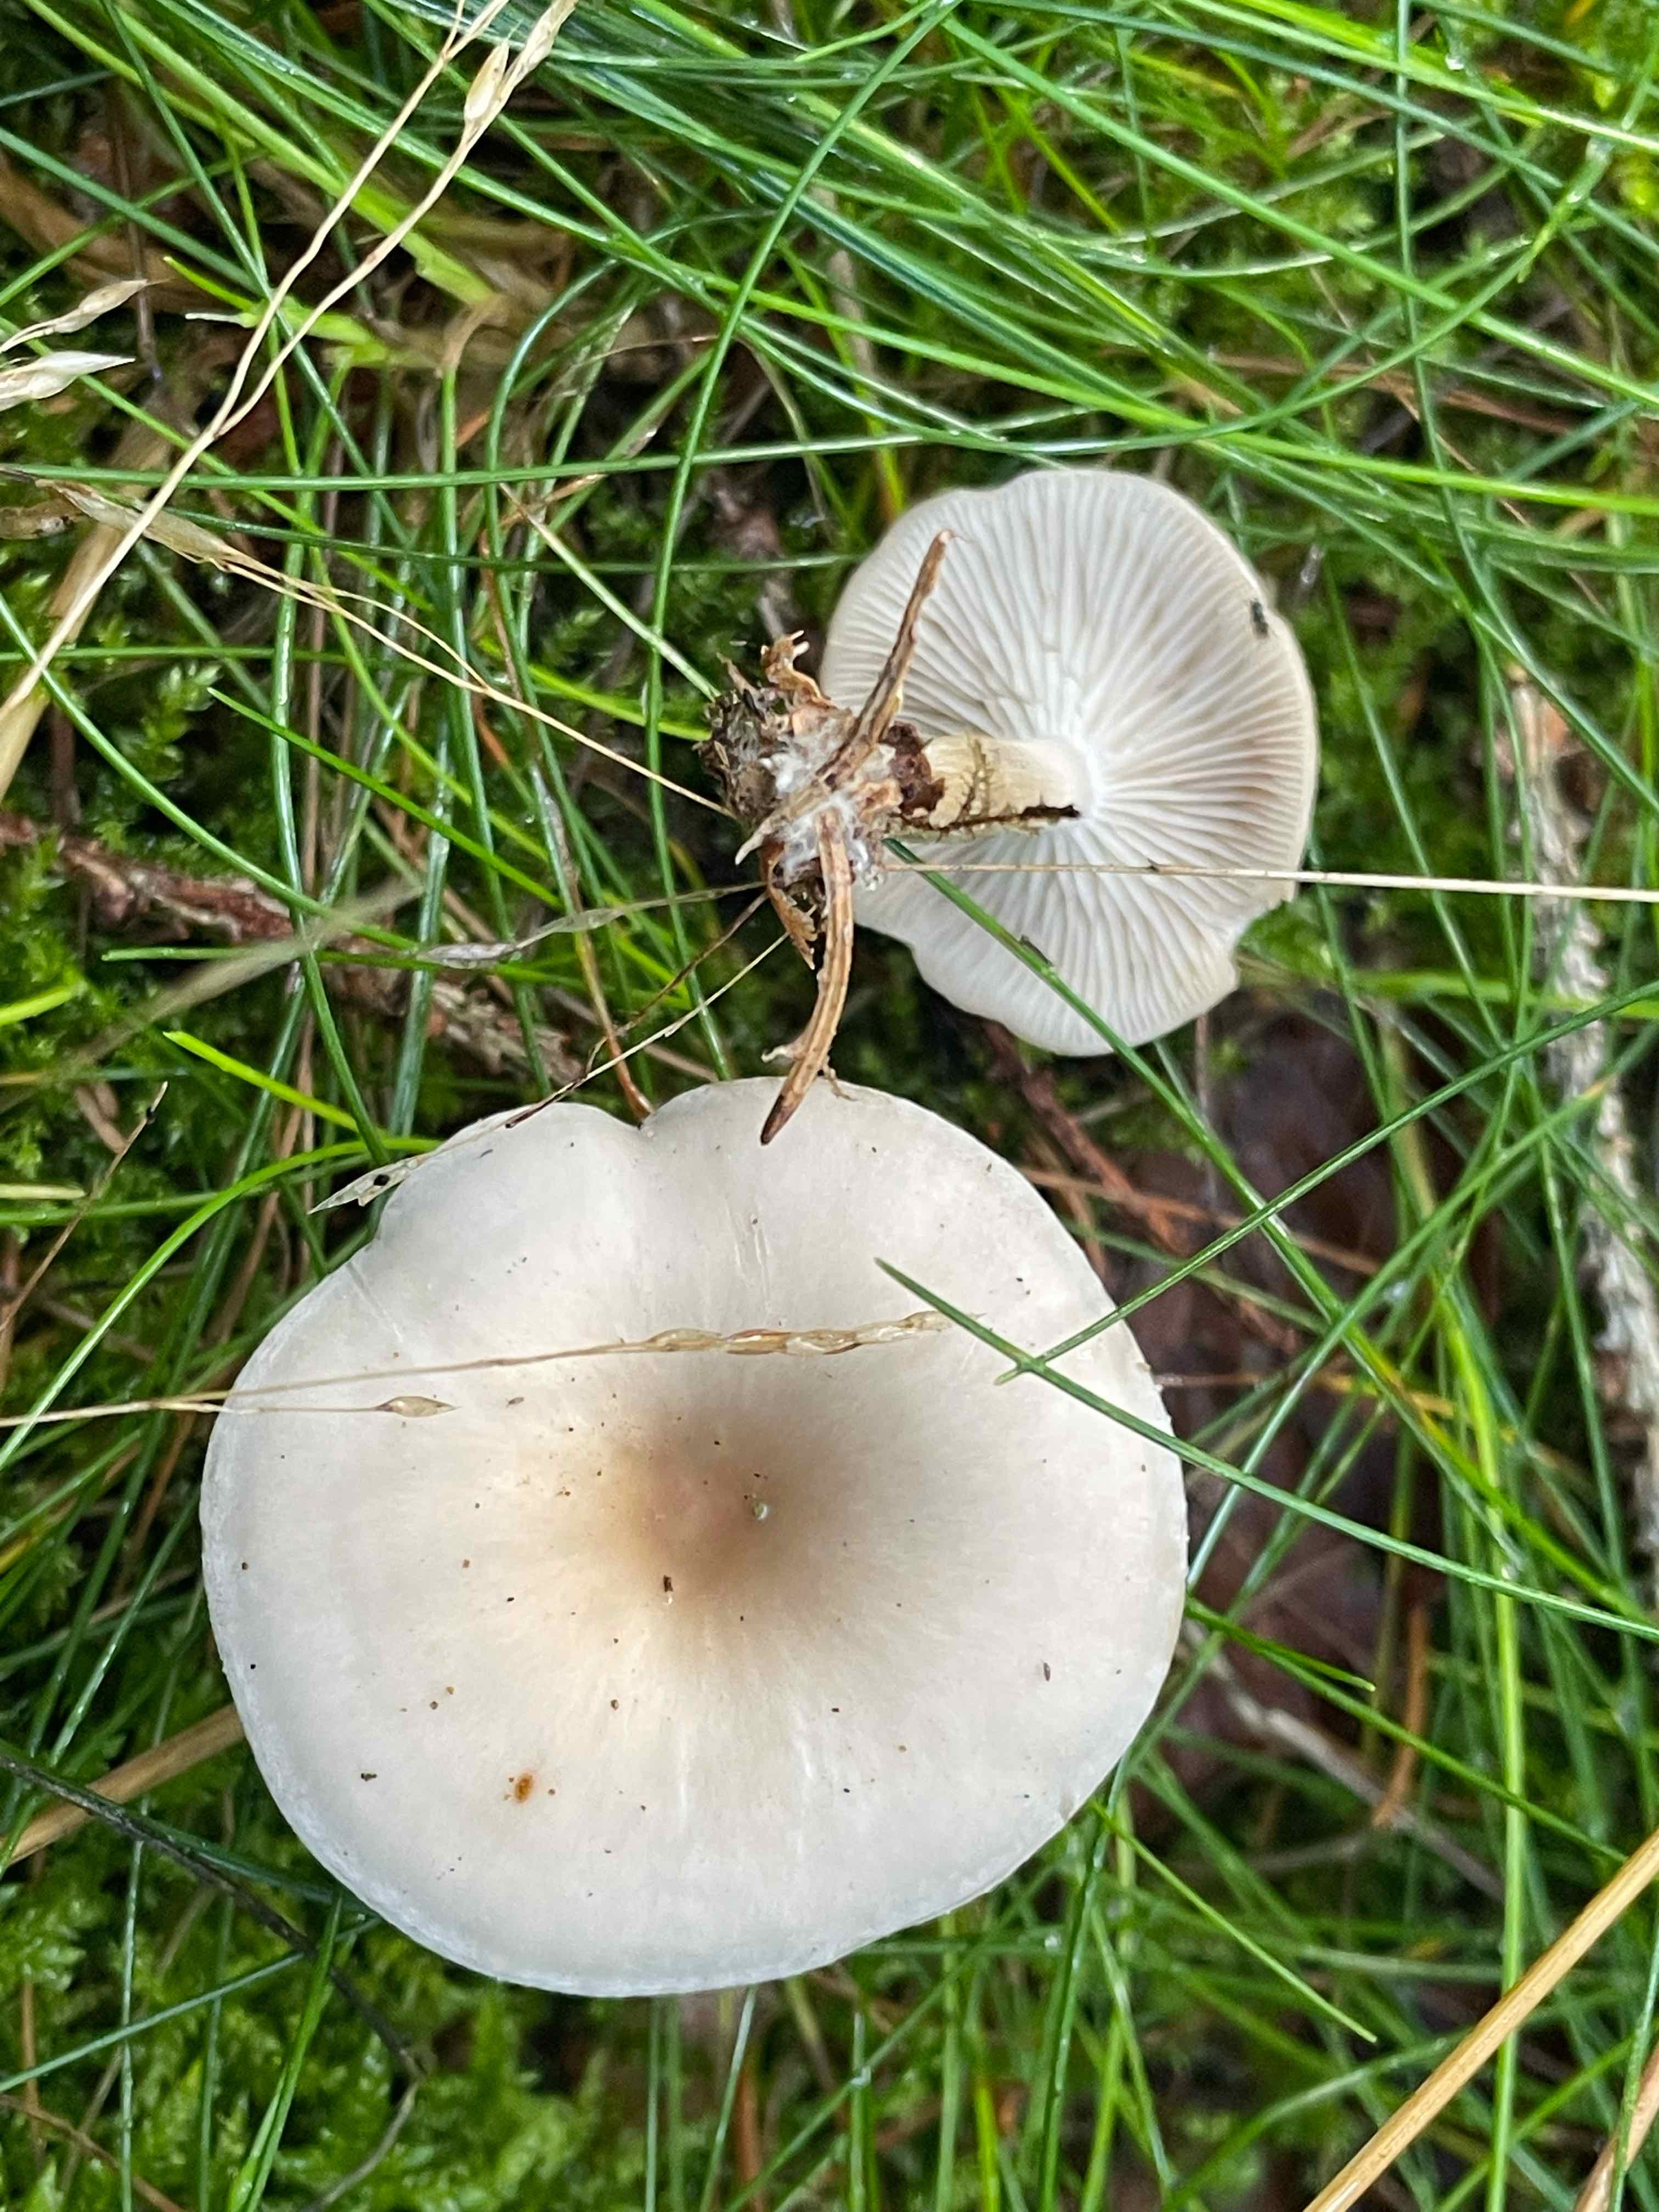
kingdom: Fungi
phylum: Basidiomycota
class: Agaricomycetes
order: Agaricales
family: Tricholomataceae
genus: Clitocybe
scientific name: Clitocybe
